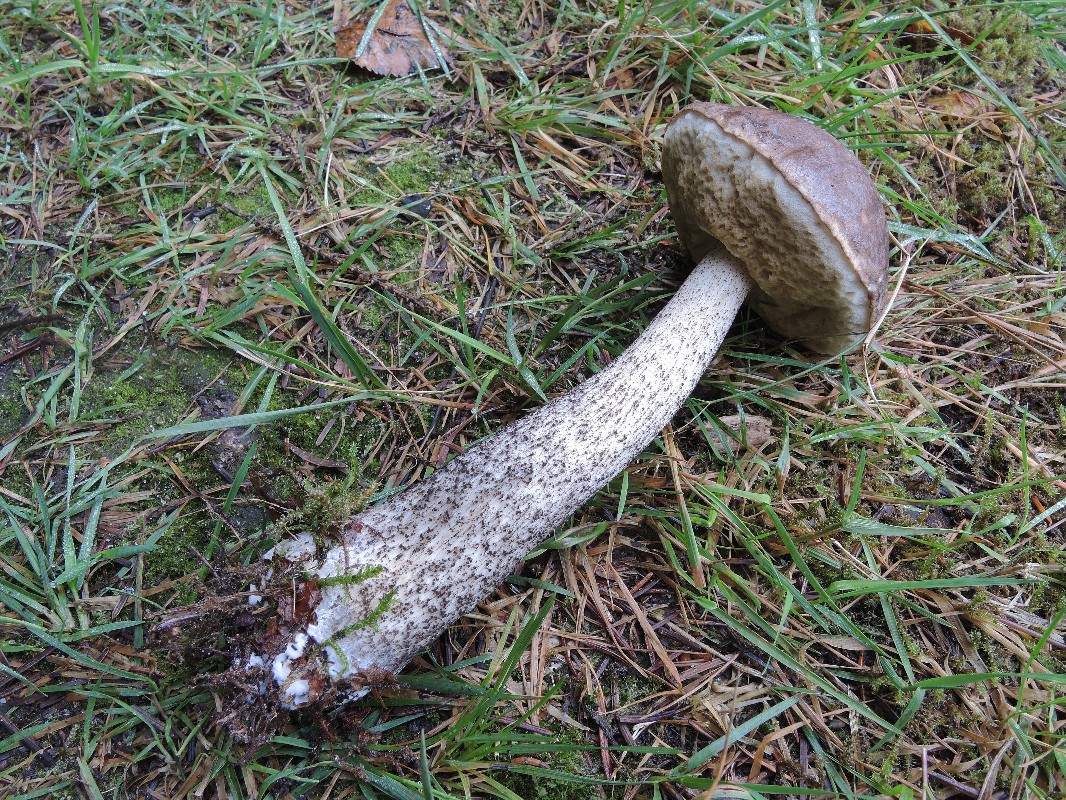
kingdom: Fungi
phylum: Basidiomycota
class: Agaricomycetes
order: Boletales
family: Boletaceae
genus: Leccinum
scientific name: Leccinum scabrum
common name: brun skælrørhat
